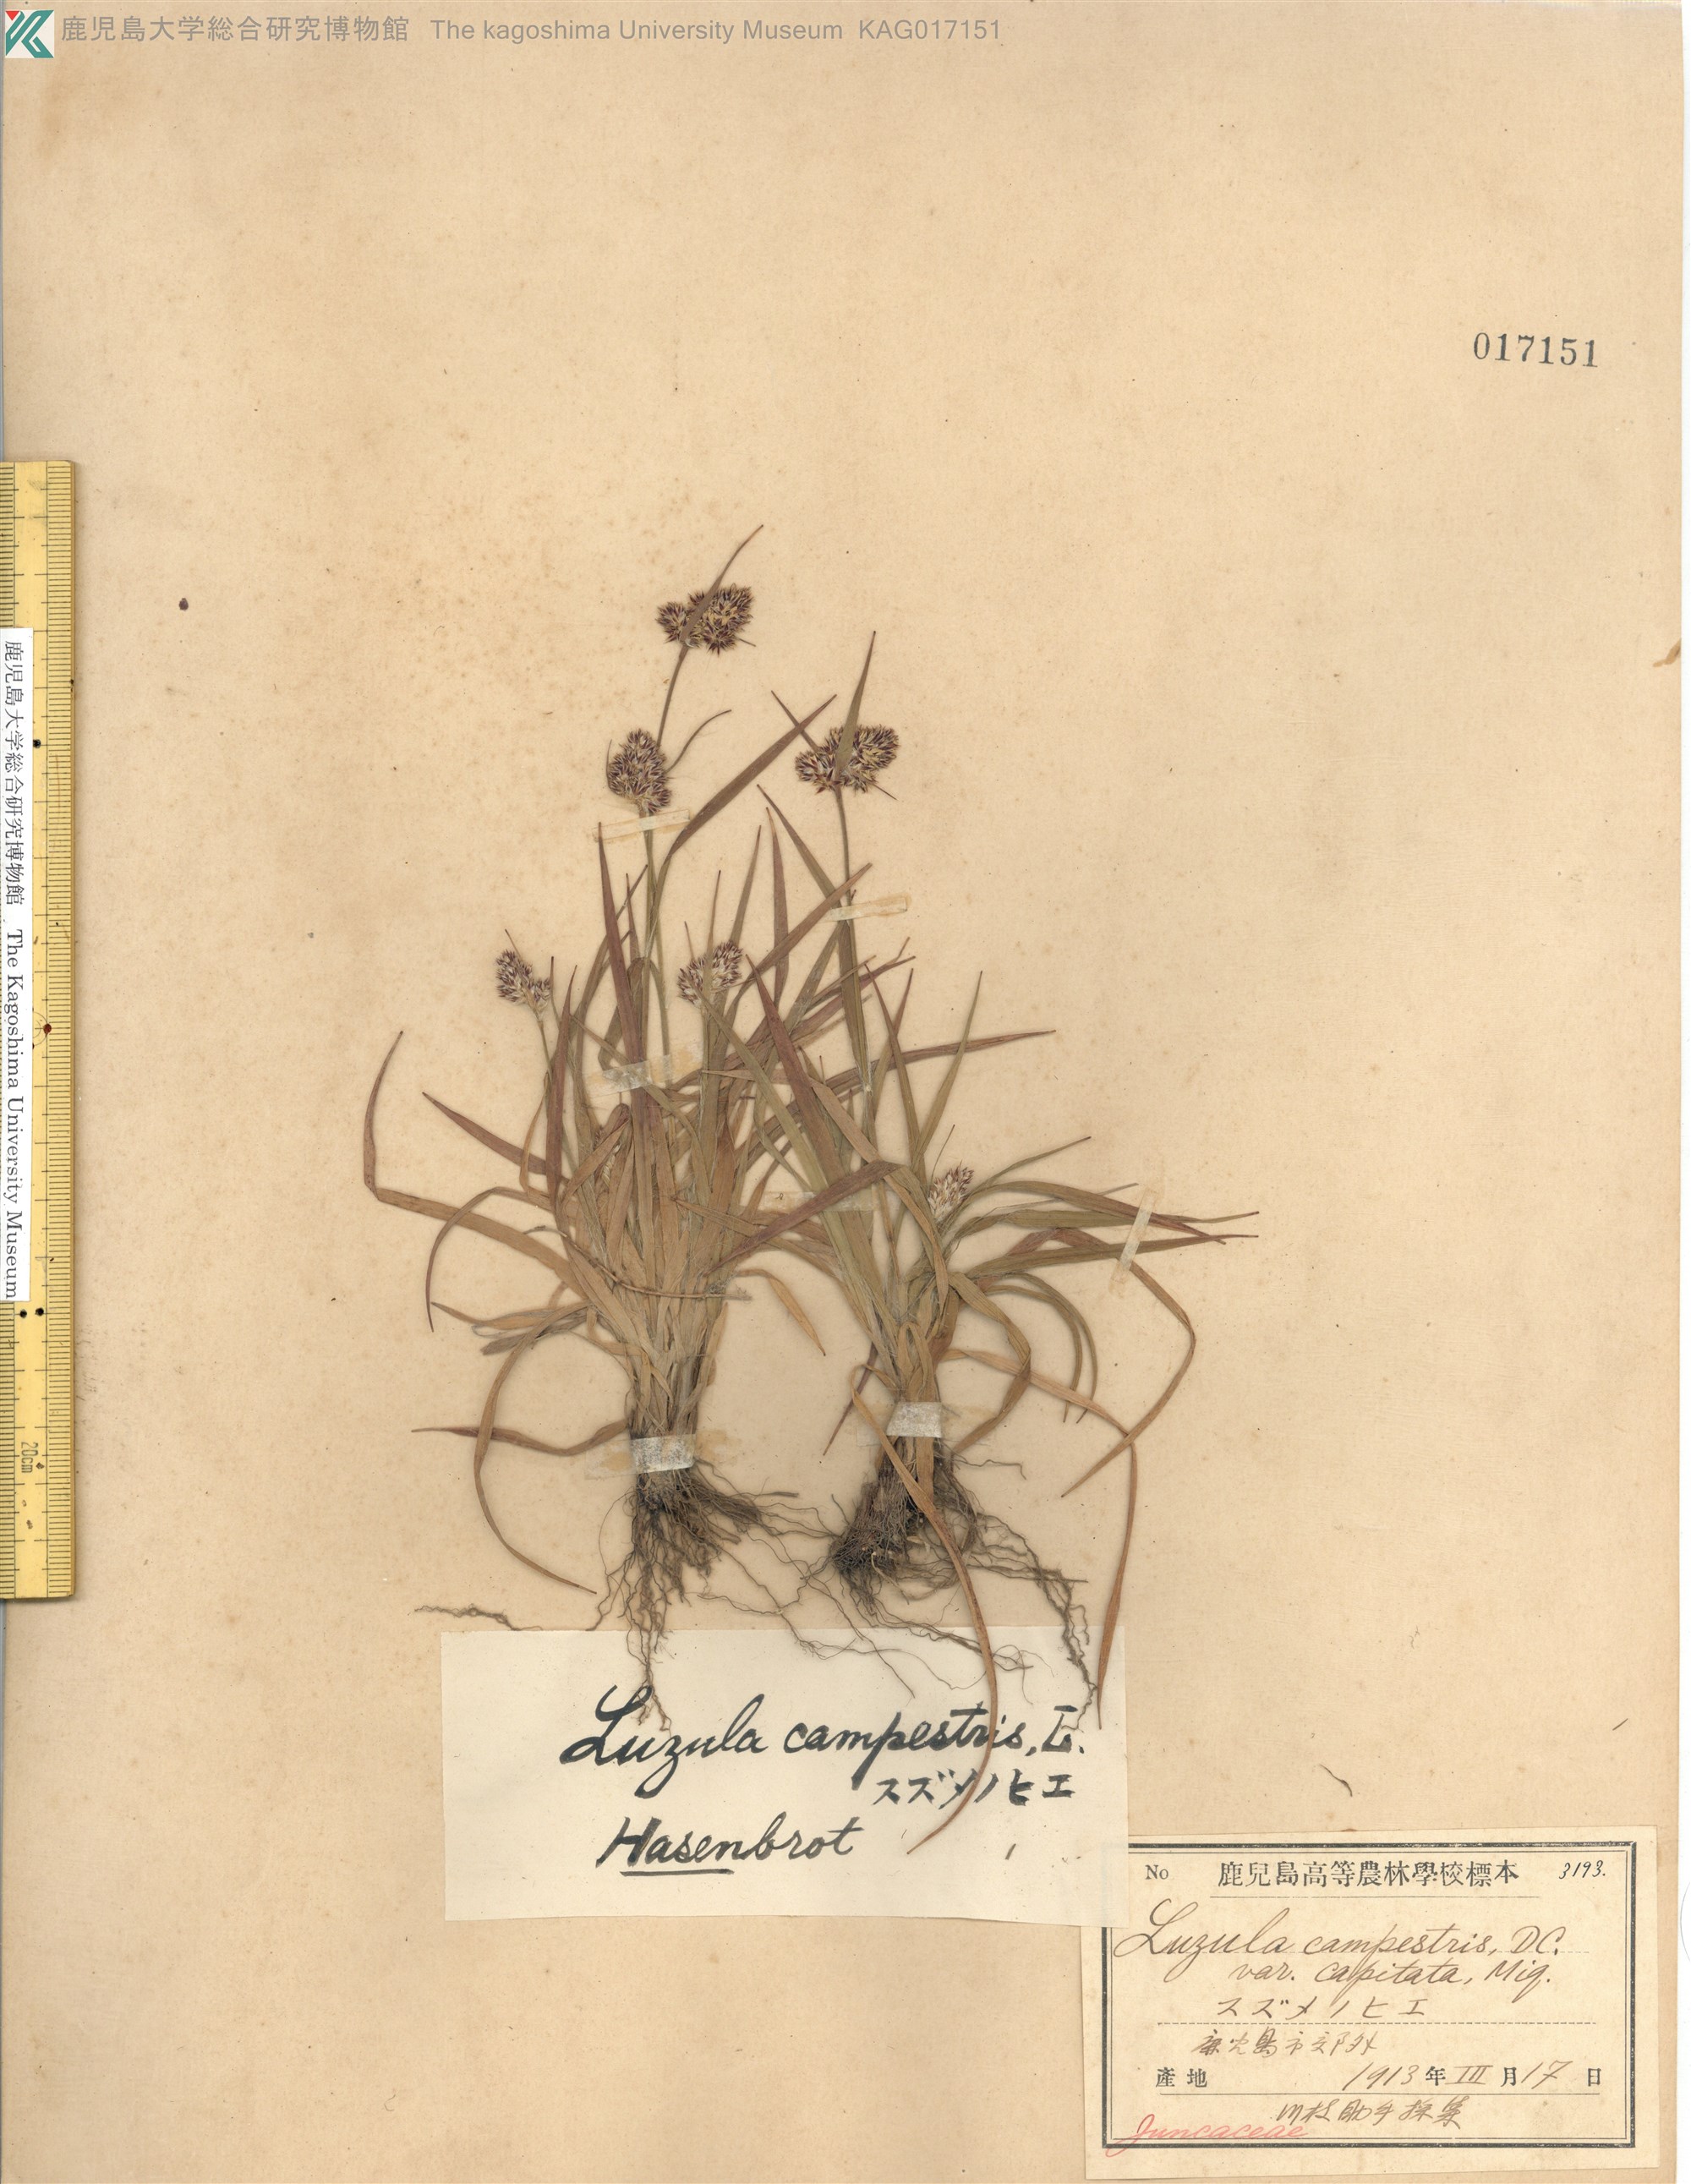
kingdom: Plantae
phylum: Tracheophyta
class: Liliopsida
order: Poales
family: Juncaceae
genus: Luzula
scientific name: Luzula capitata
